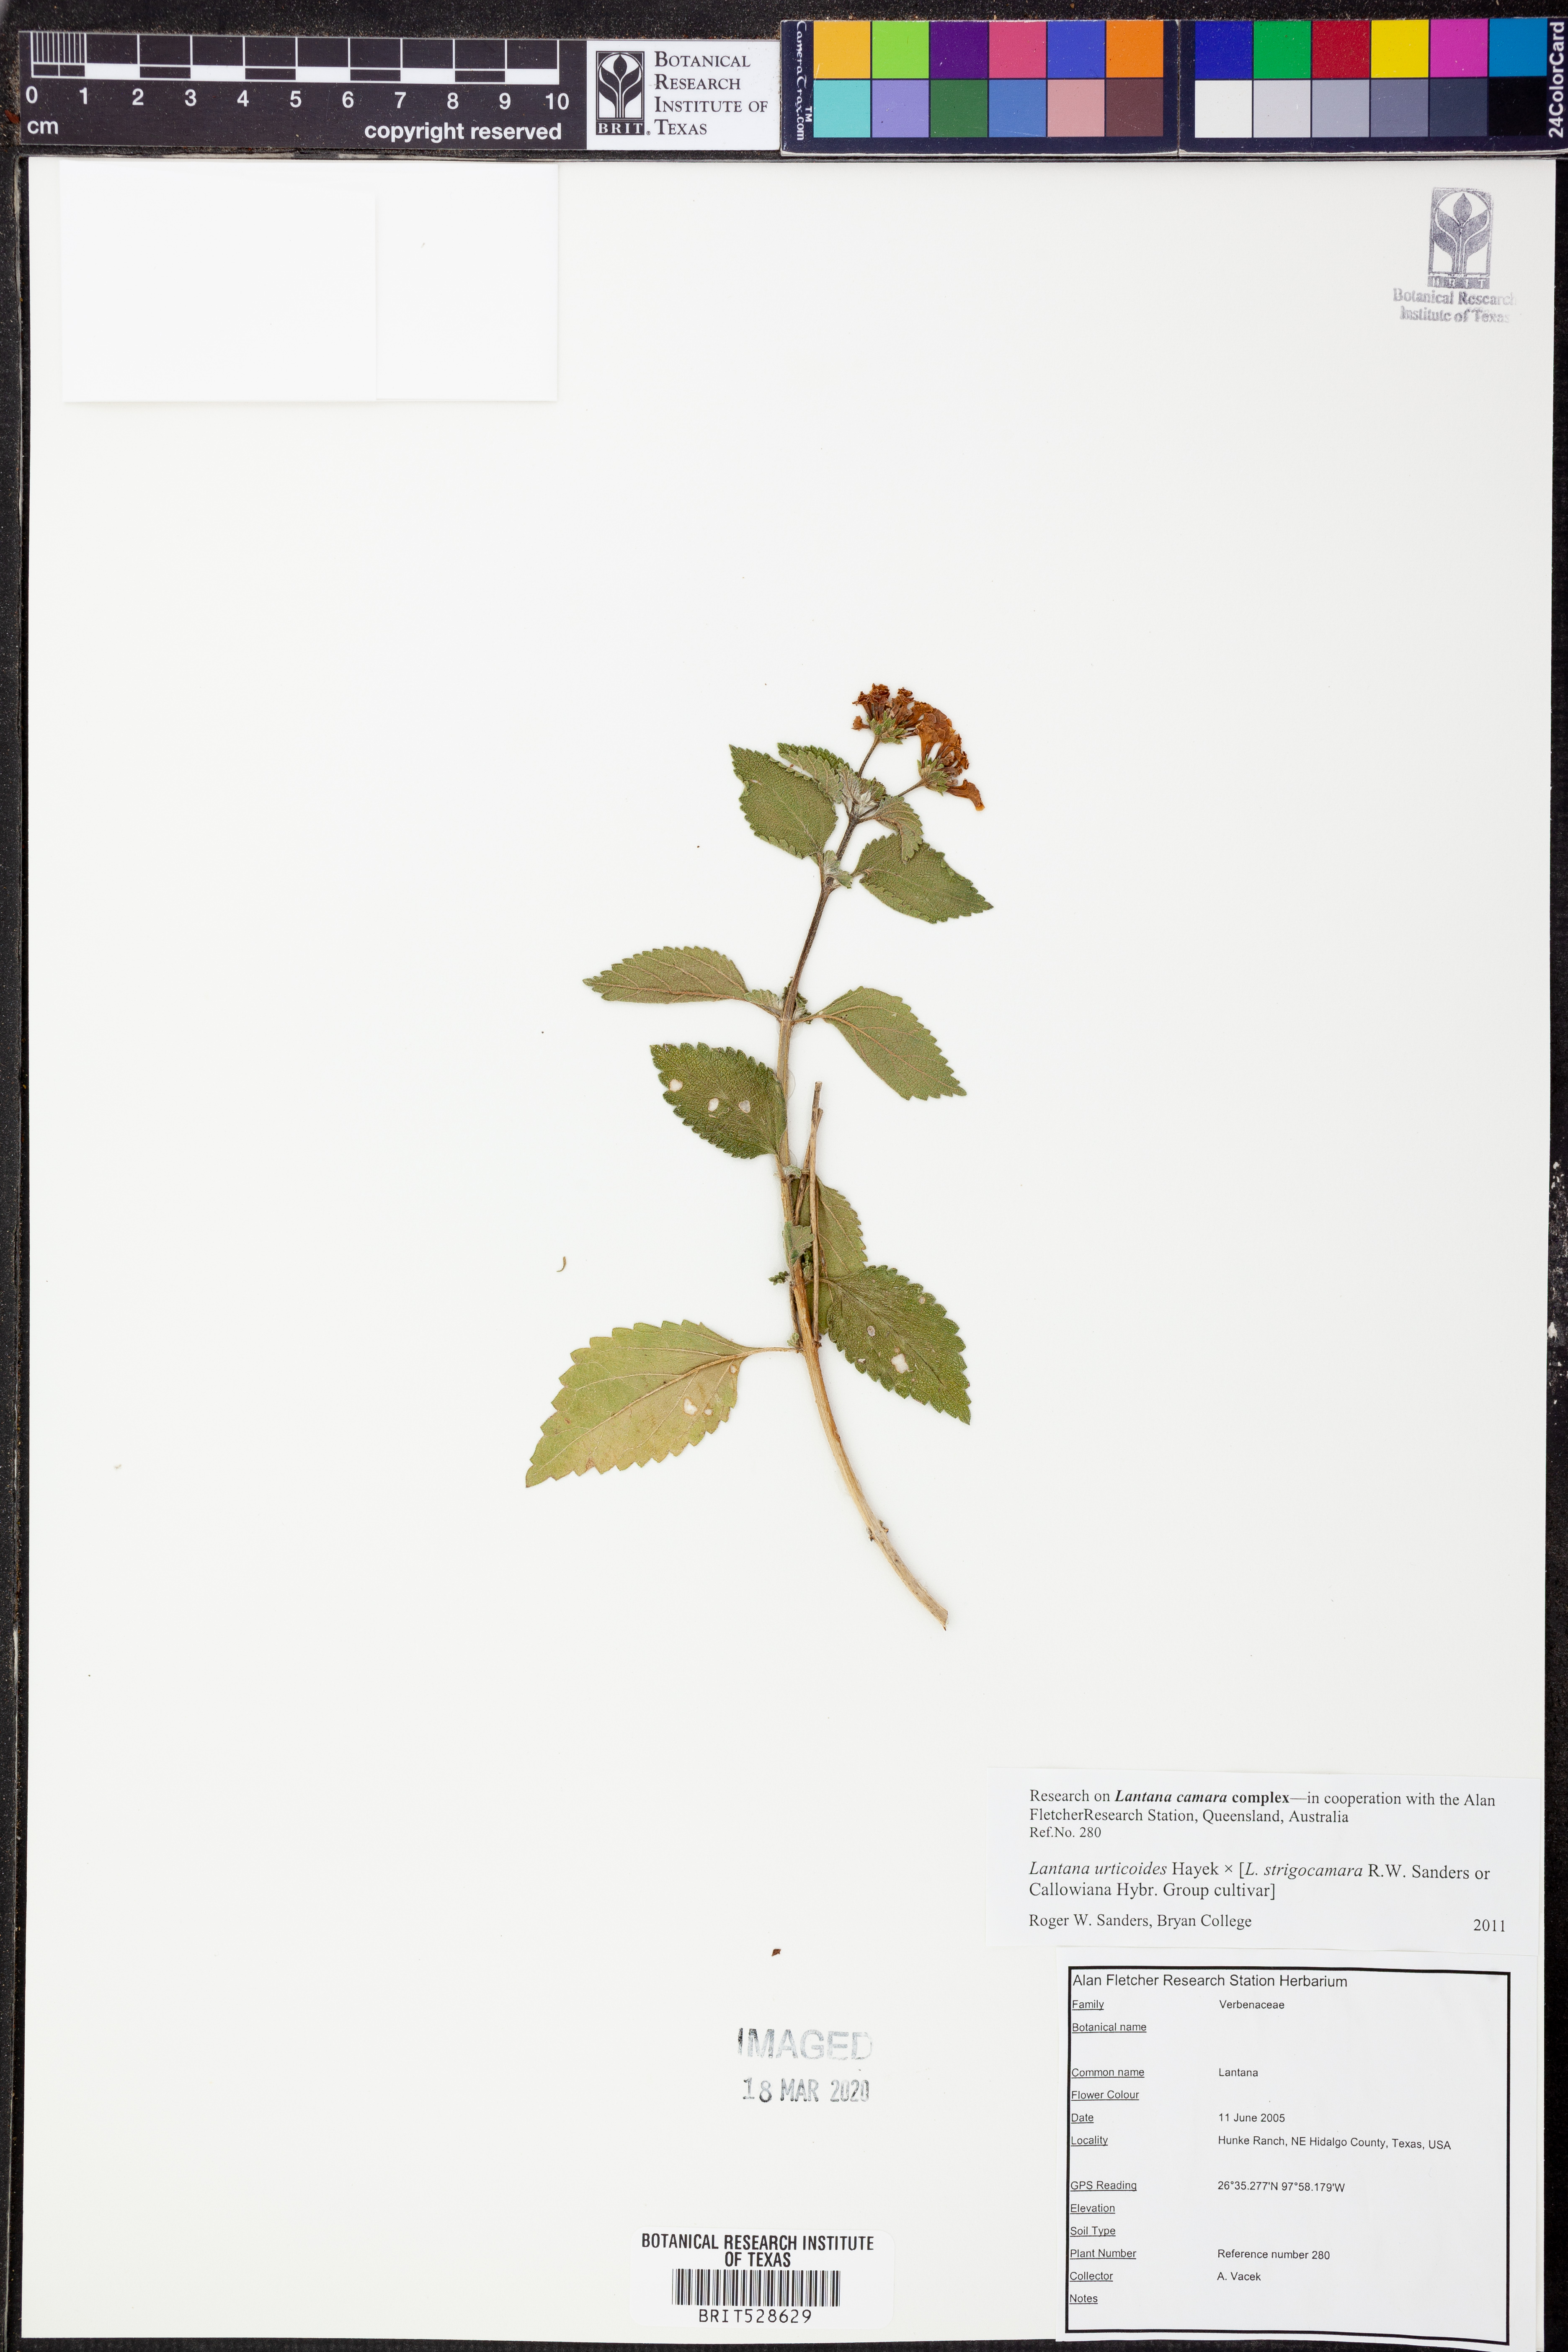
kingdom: Plantae
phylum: Tracheophyta
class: Magnoliopsida
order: Lamiales
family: Verbenaceae
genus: Lantana
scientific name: Lantana urticoides
